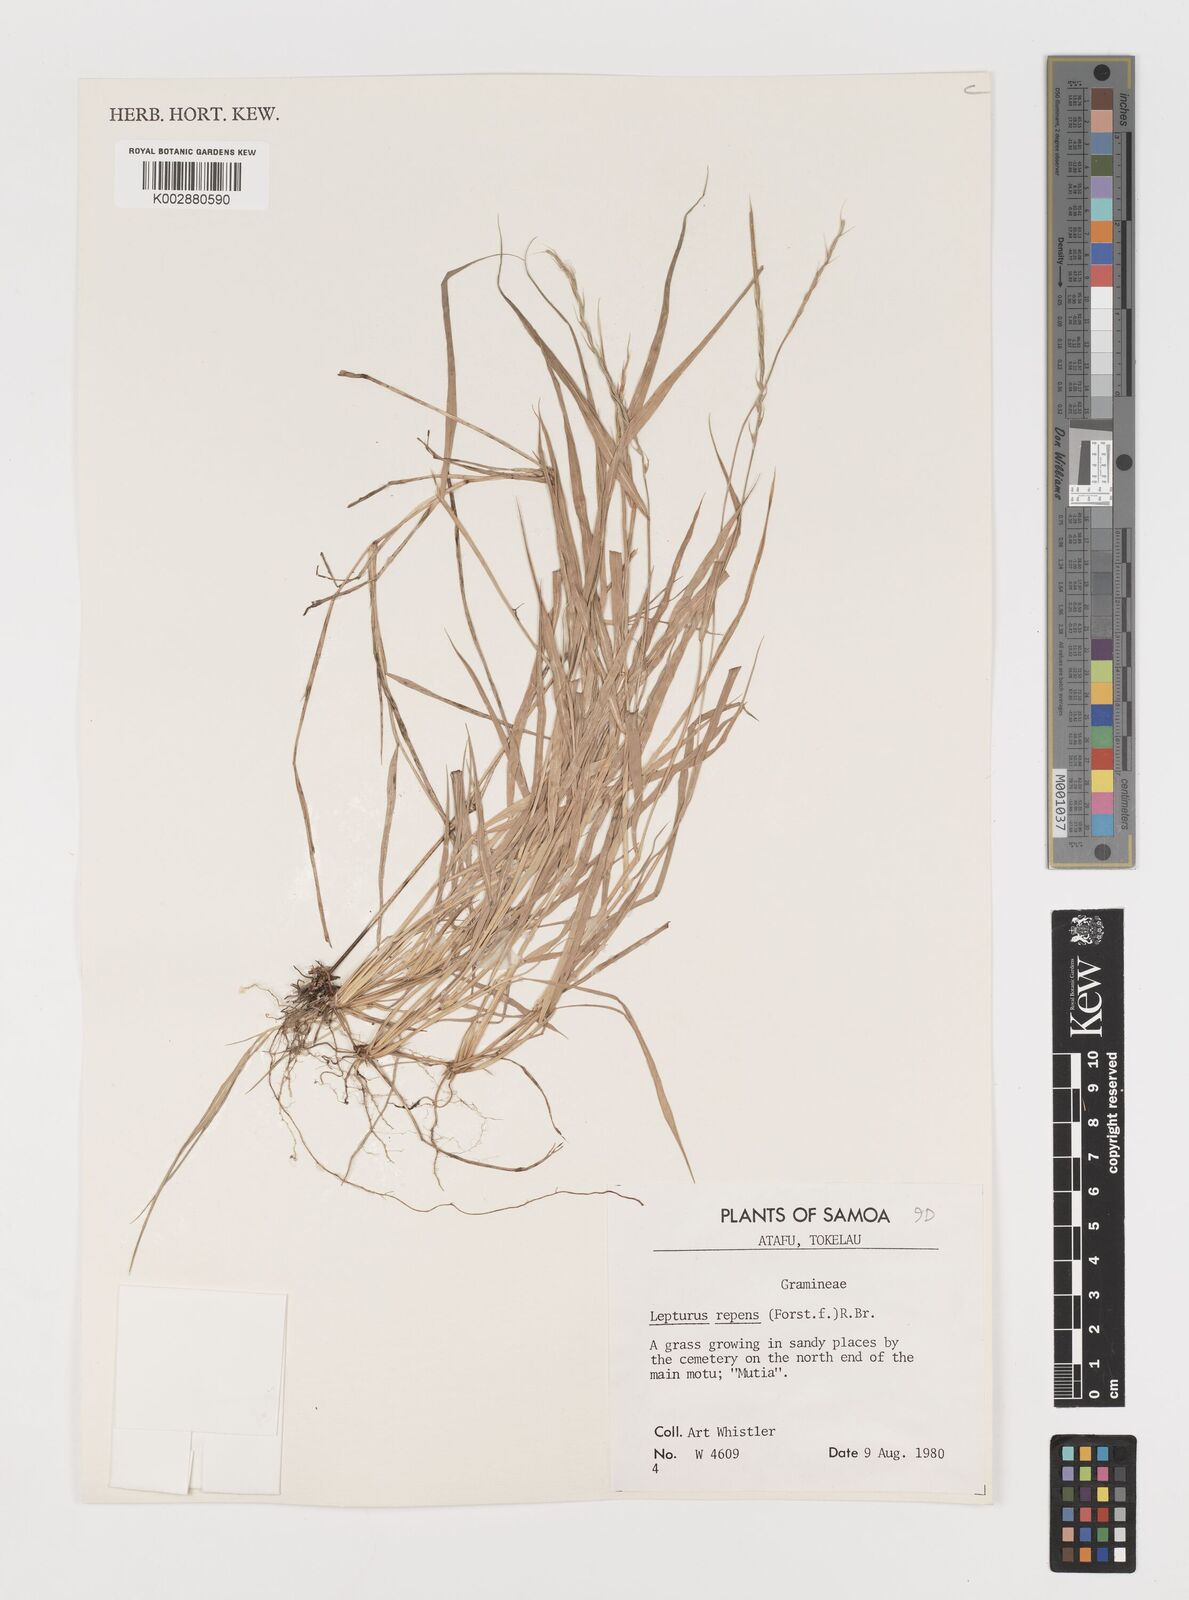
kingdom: Plantae
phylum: Tracheophyta
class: Liliopsida
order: Poales
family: Poaceae
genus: Lepturus
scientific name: Lepturus repens
